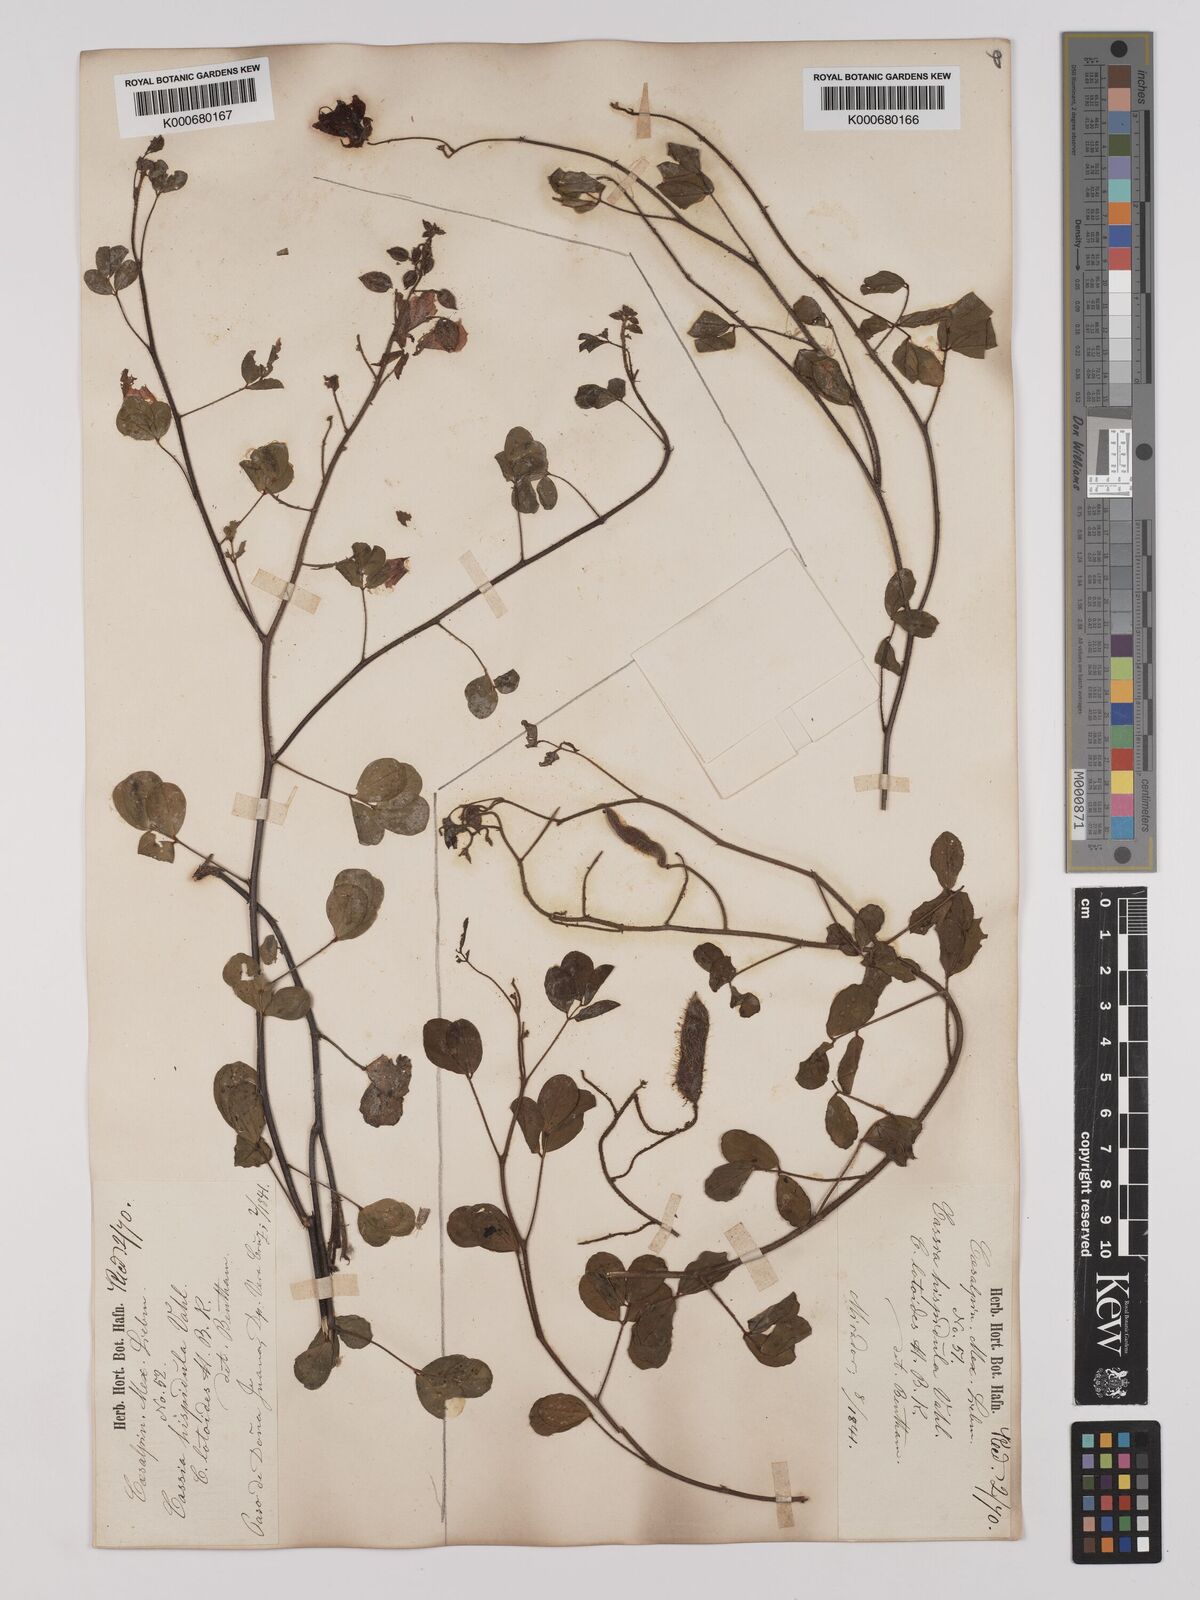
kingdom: Plantae
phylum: Tracheophyta
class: Magnoliopsida
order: Fabales
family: Fabaceae
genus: Chamaecrista
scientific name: Chamaecrista hispidula
